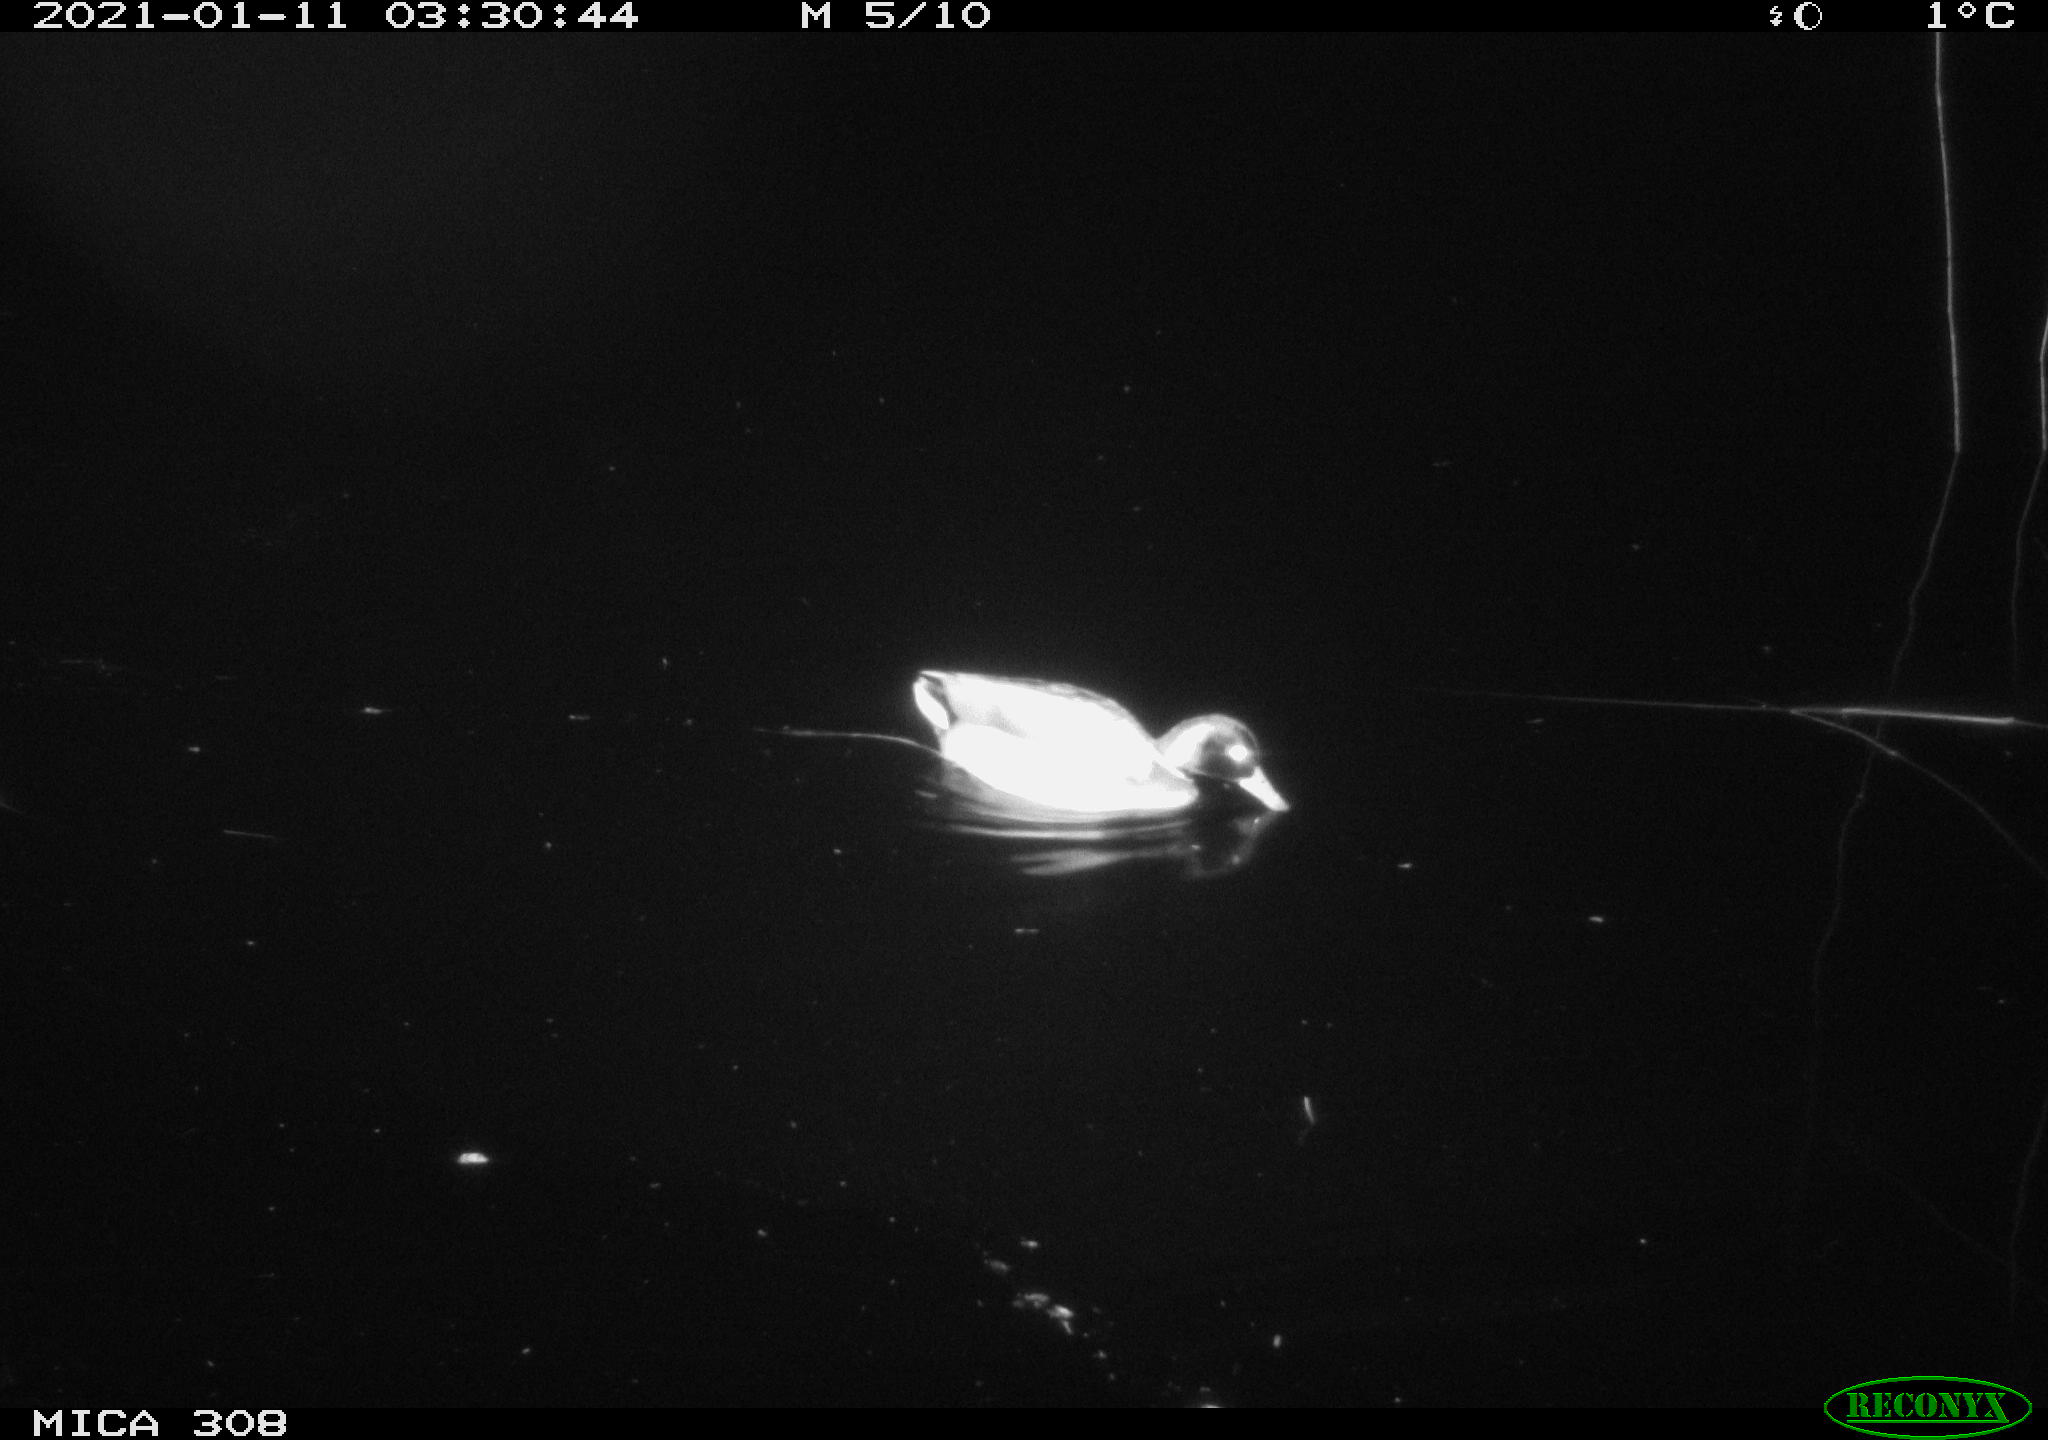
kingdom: Animalia
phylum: Chordata
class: Aves
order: Anseriformes
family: Anatidae
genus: Anas
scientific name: Anas platyrhynchos
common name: Mallard
